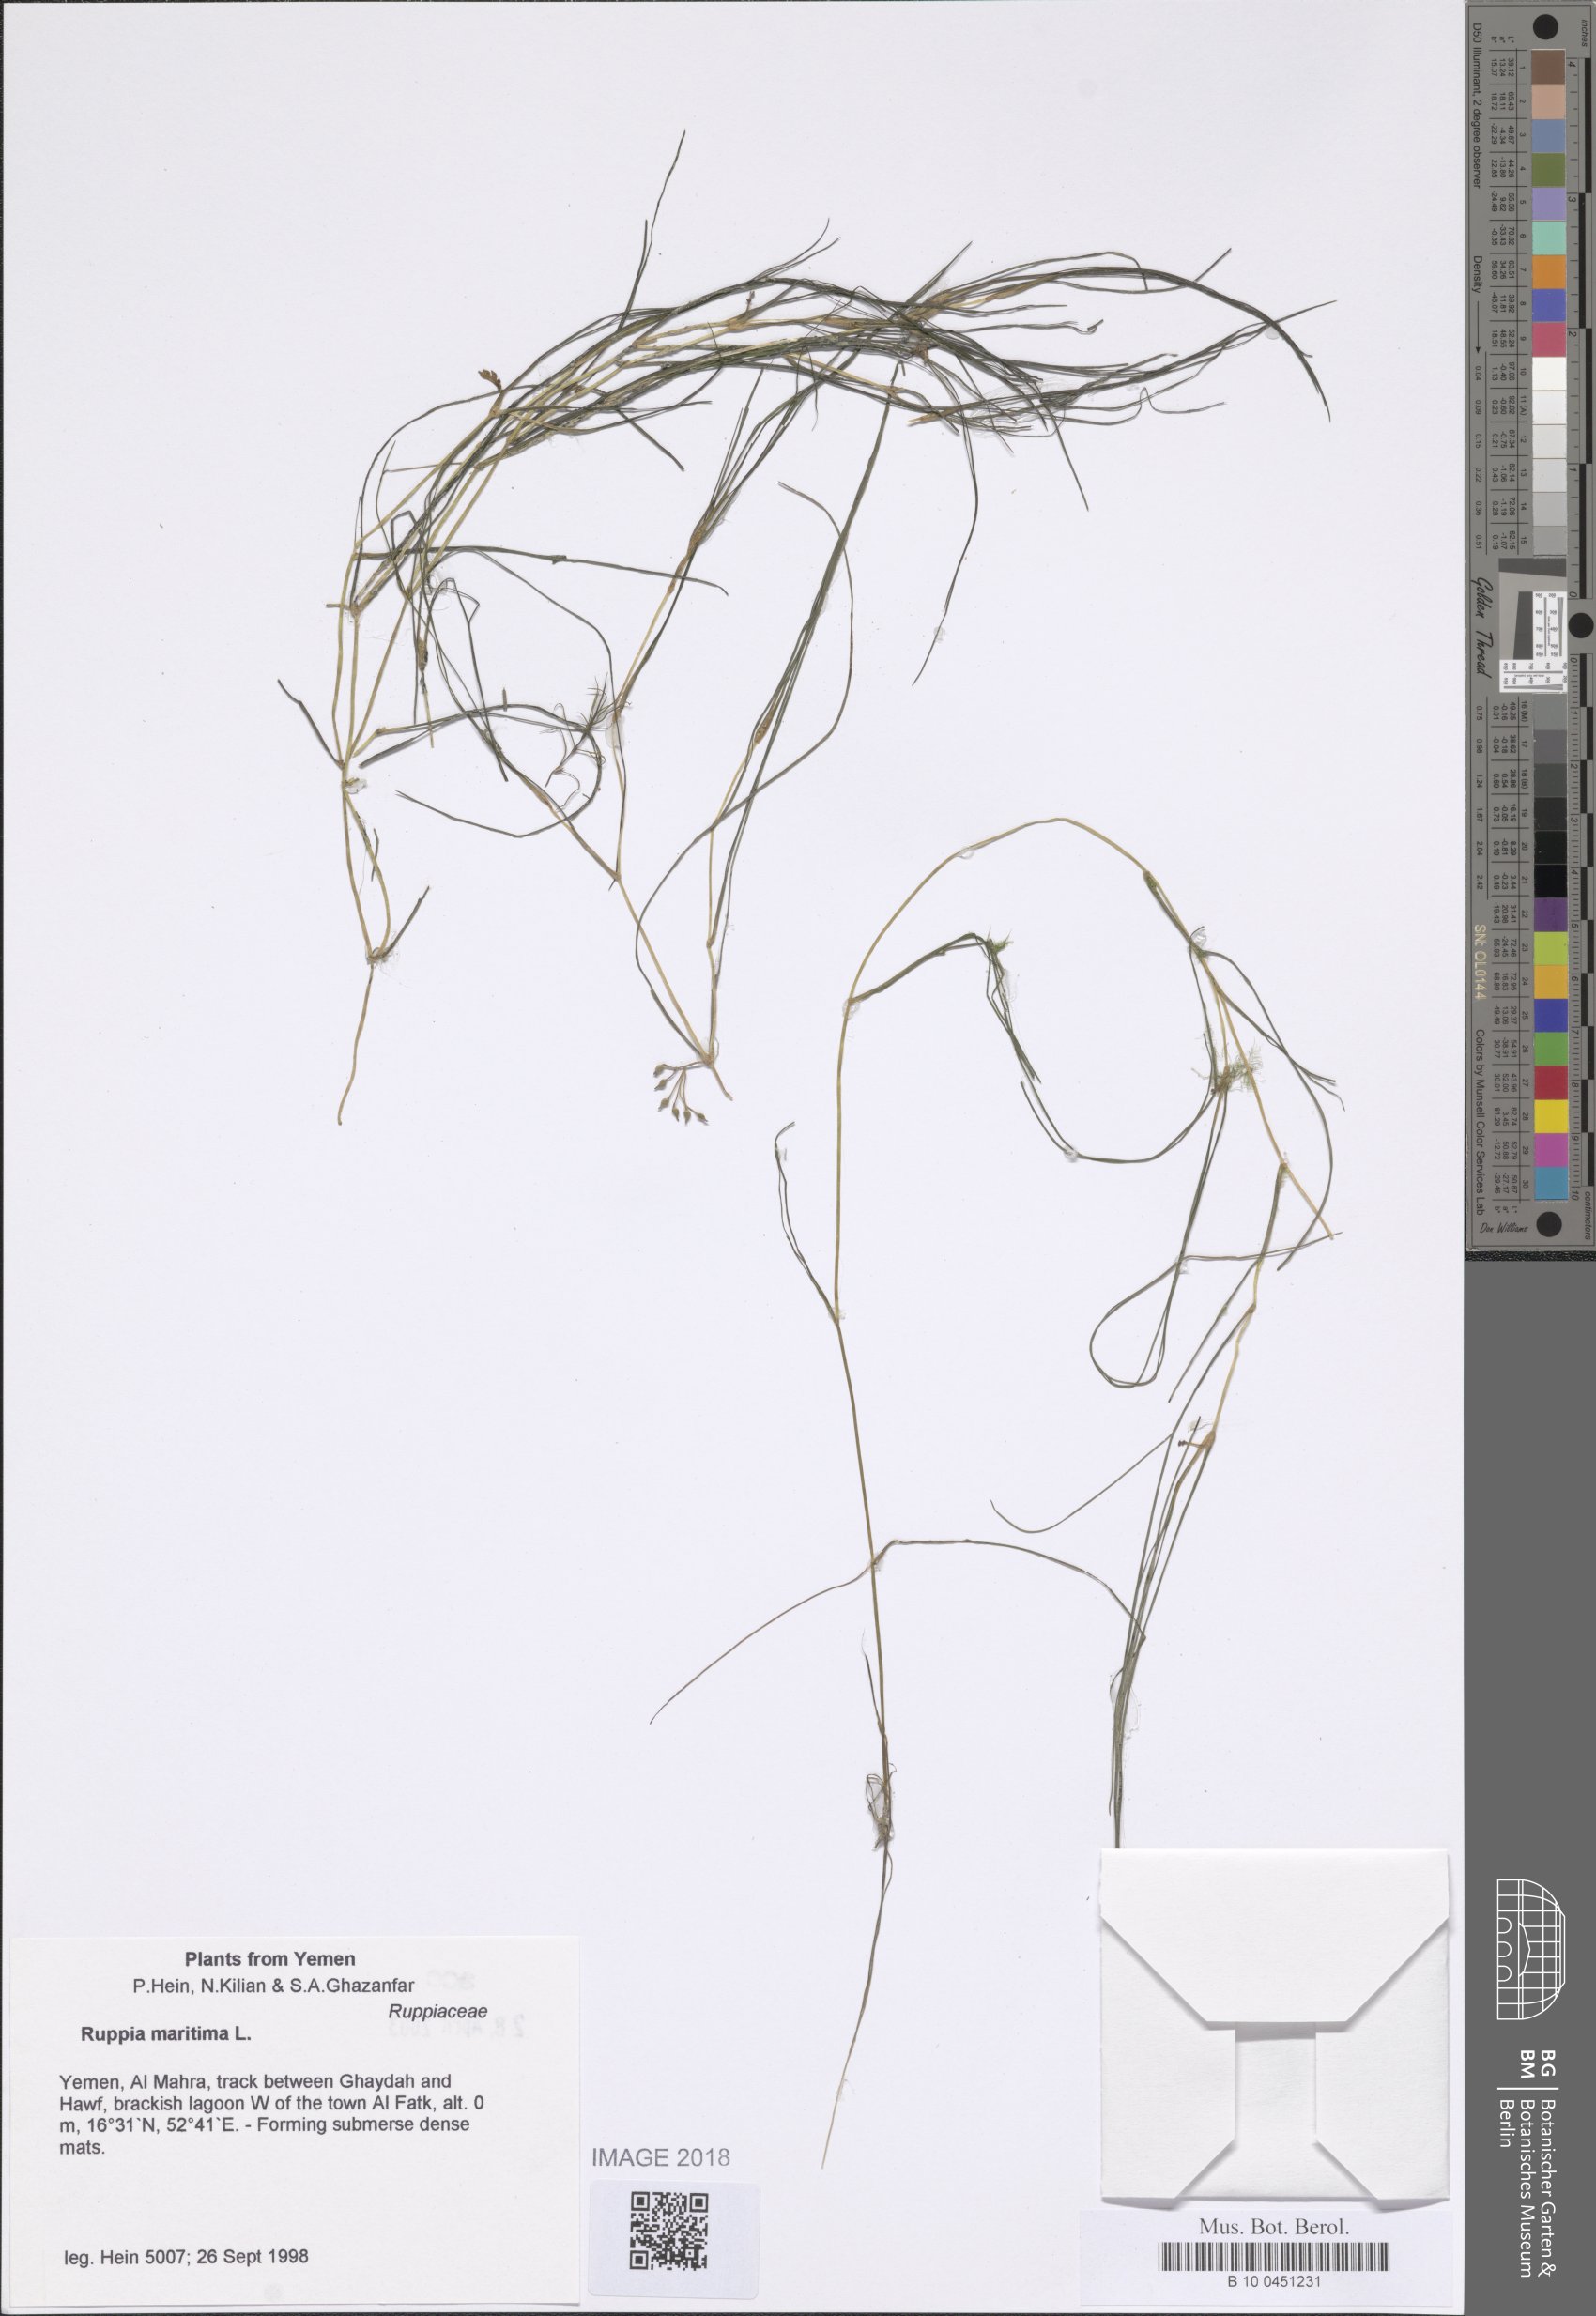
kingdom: Plantae
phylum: Tracheophyta
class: Liliopsida
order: Alismatales
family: Ruppiaceae
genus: Ruppia
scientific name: Ruppia maritima
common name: Beaked tasselweed
